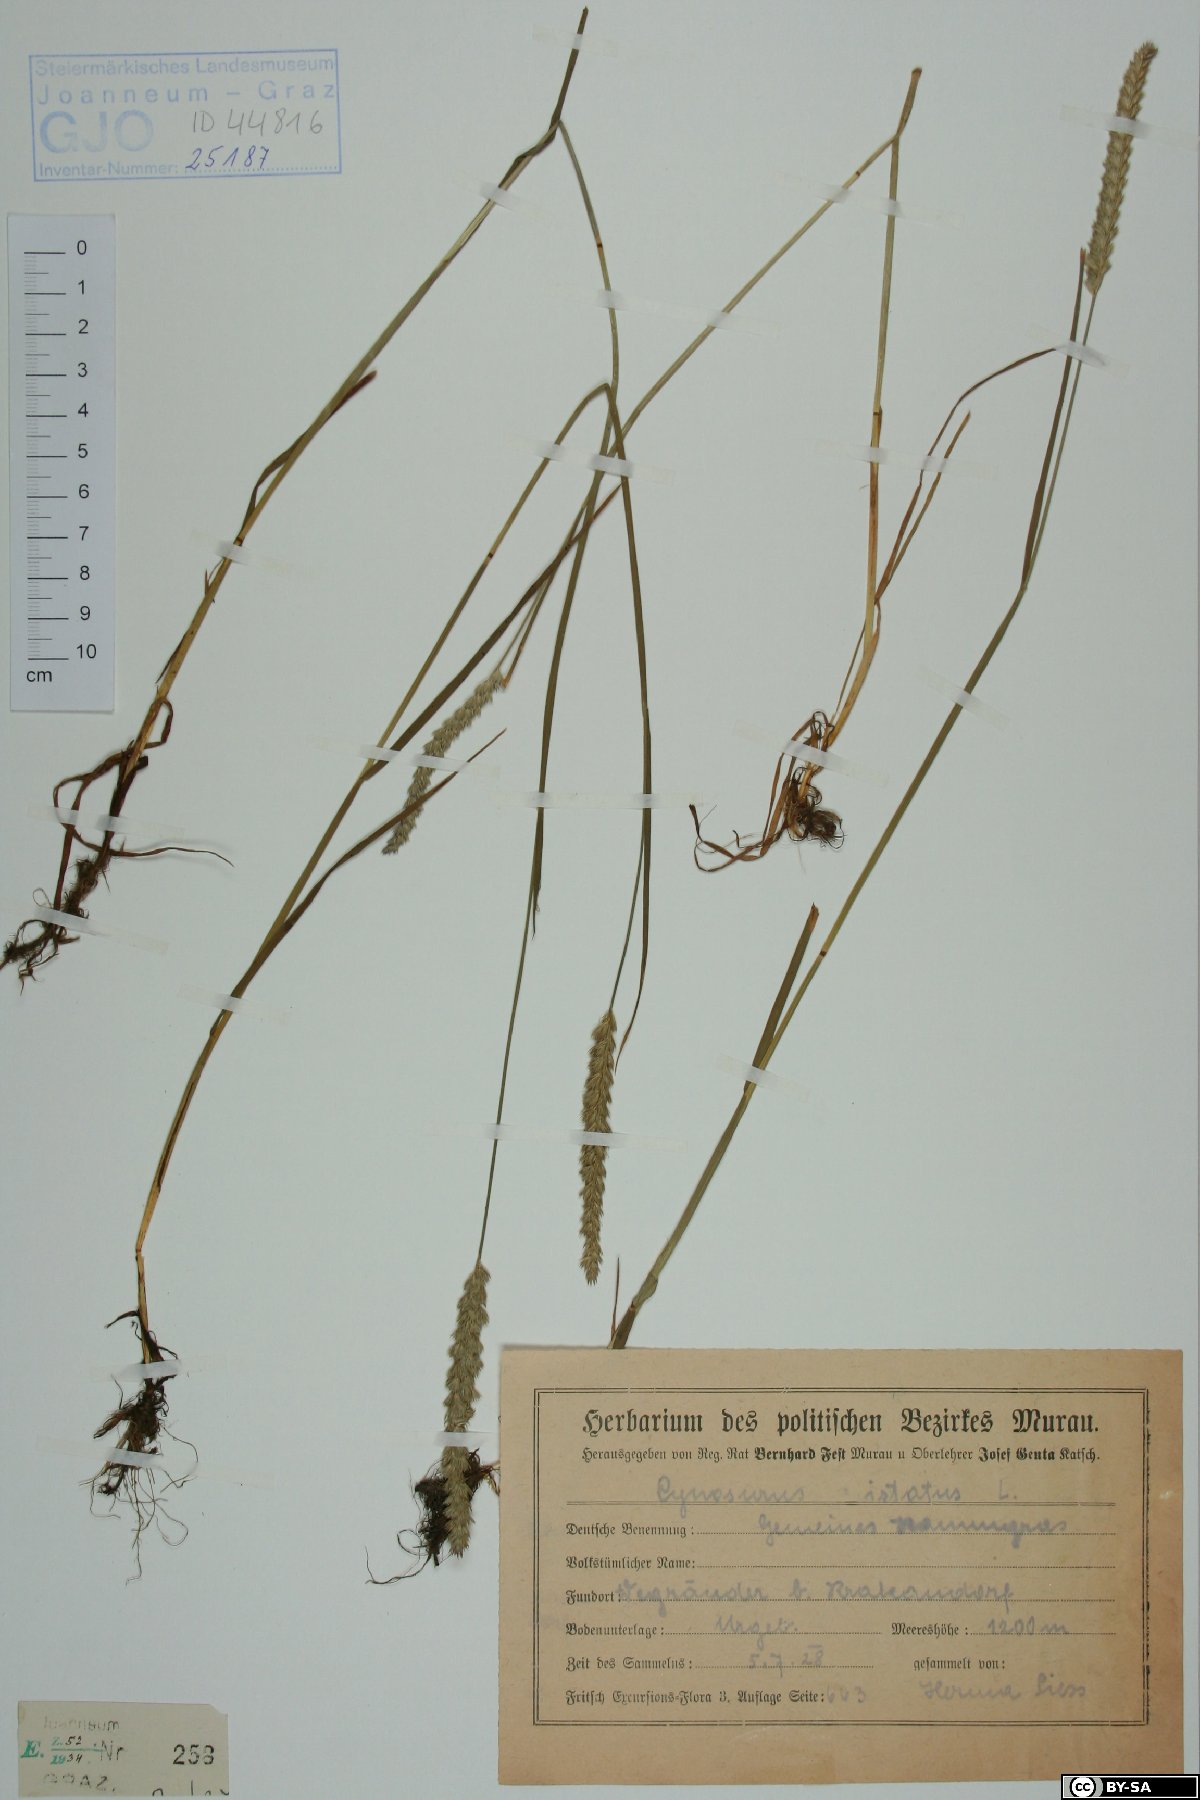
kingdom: Plantae
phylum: Tracheophyta
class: Liliopsida
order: Poales
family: Poaceae
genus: Cynosurus
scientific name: Cynosurus cristatus
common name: Crested dog's-tail
